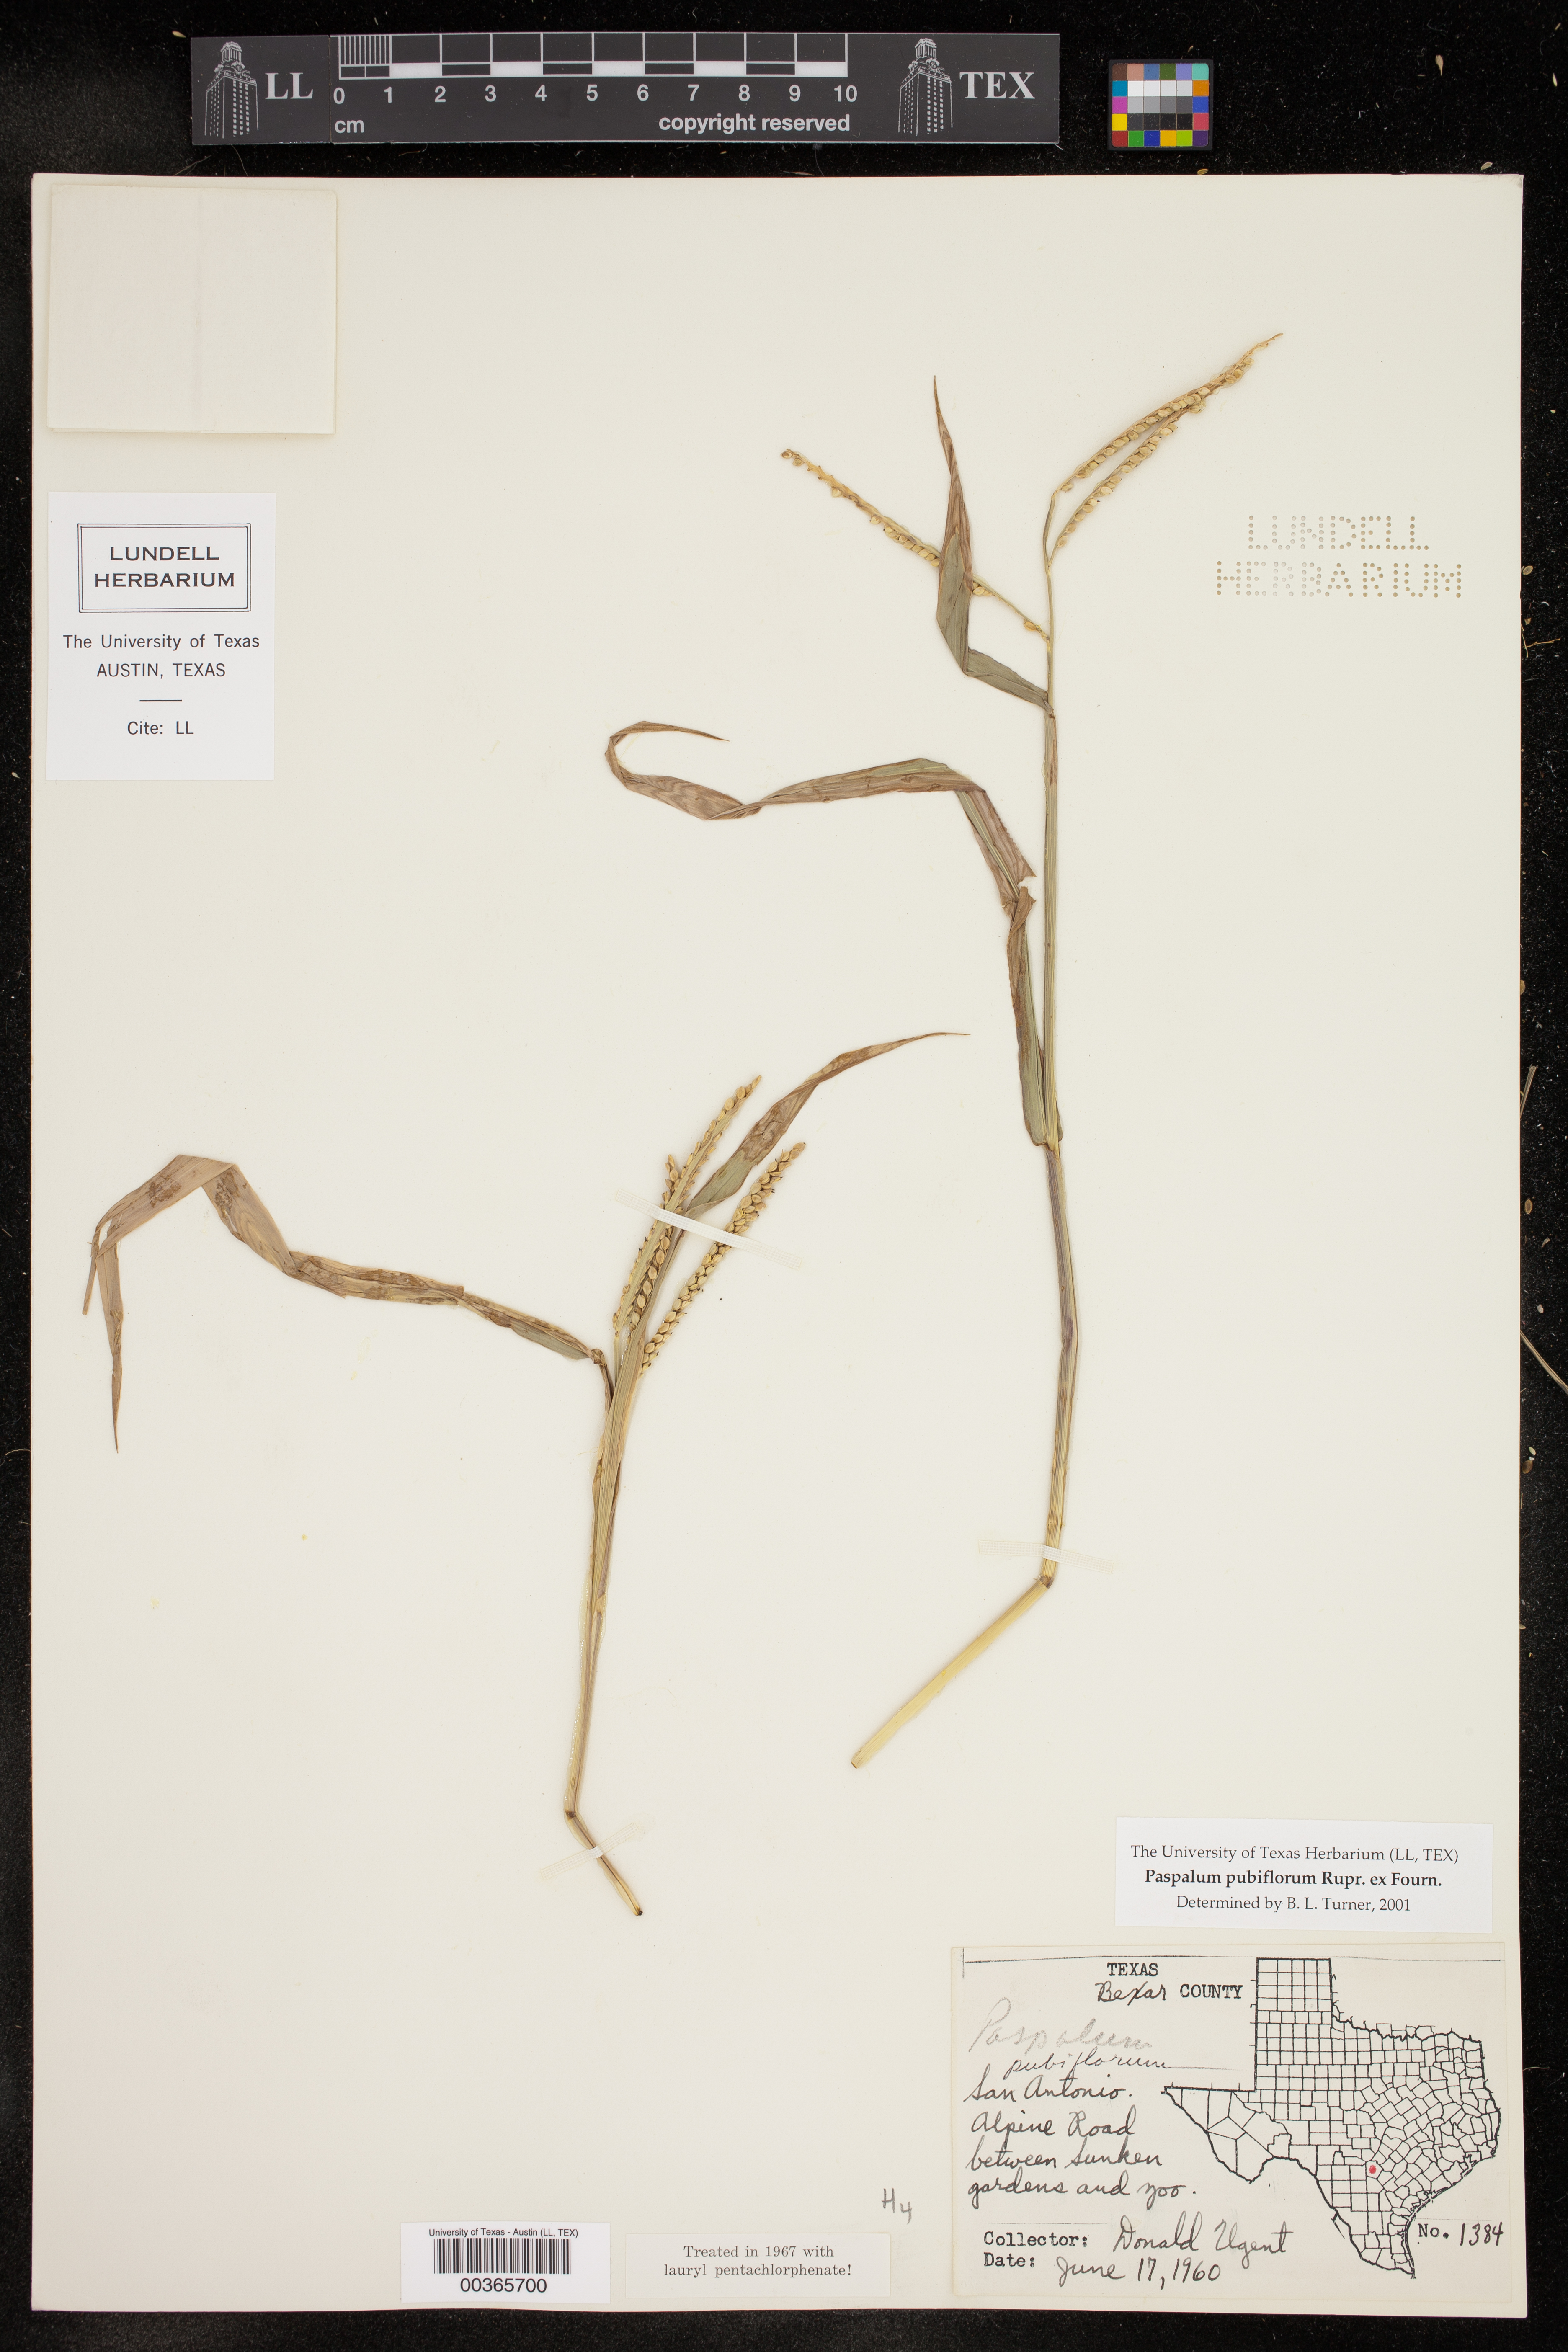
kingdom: Plantae
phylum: Tracheophyta
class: Liliopsida
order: Poales
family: Poaceae
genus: Paspalum
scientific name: Paspalum pubiflorum
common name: Hairy-seed paspalum
